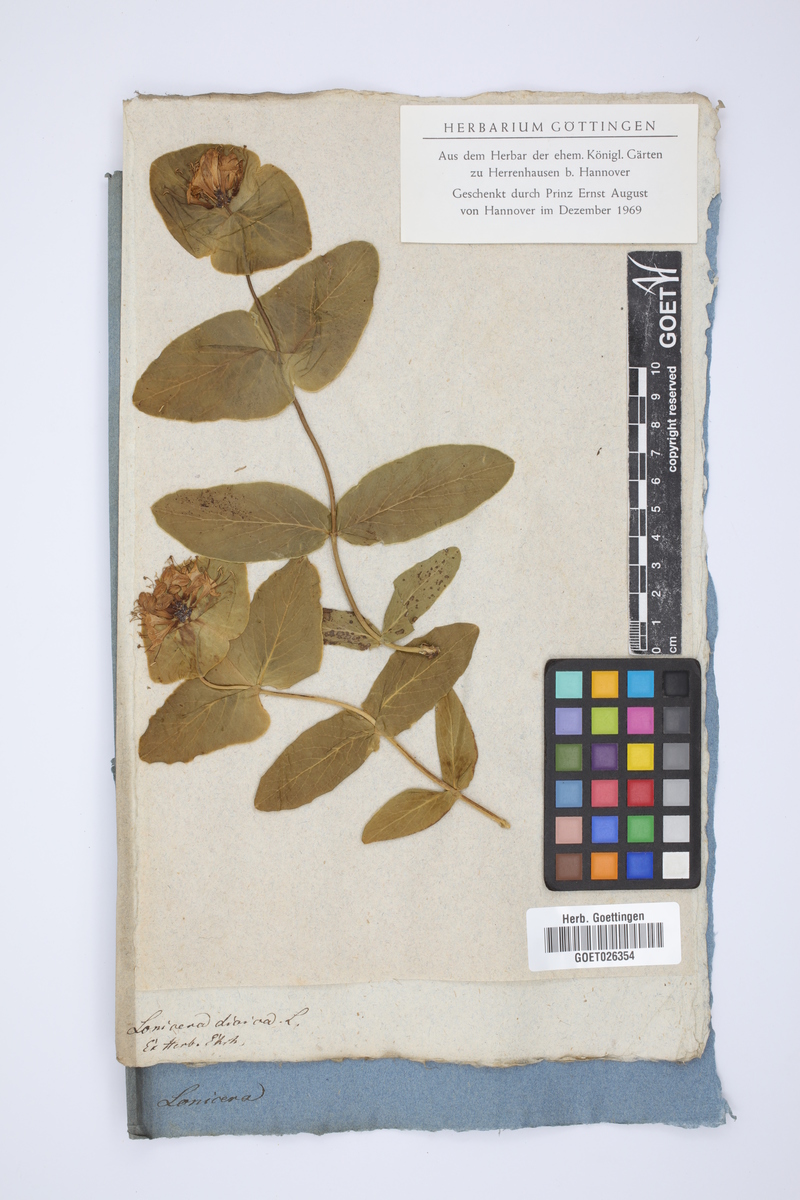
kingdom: Plantae
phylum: Tracheophyta
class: Magnoliopsida
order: Dipsacales
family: Caprifoliaceae
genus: Lonicera
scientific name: Lonicera dioica
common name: Limber honeysuckle
